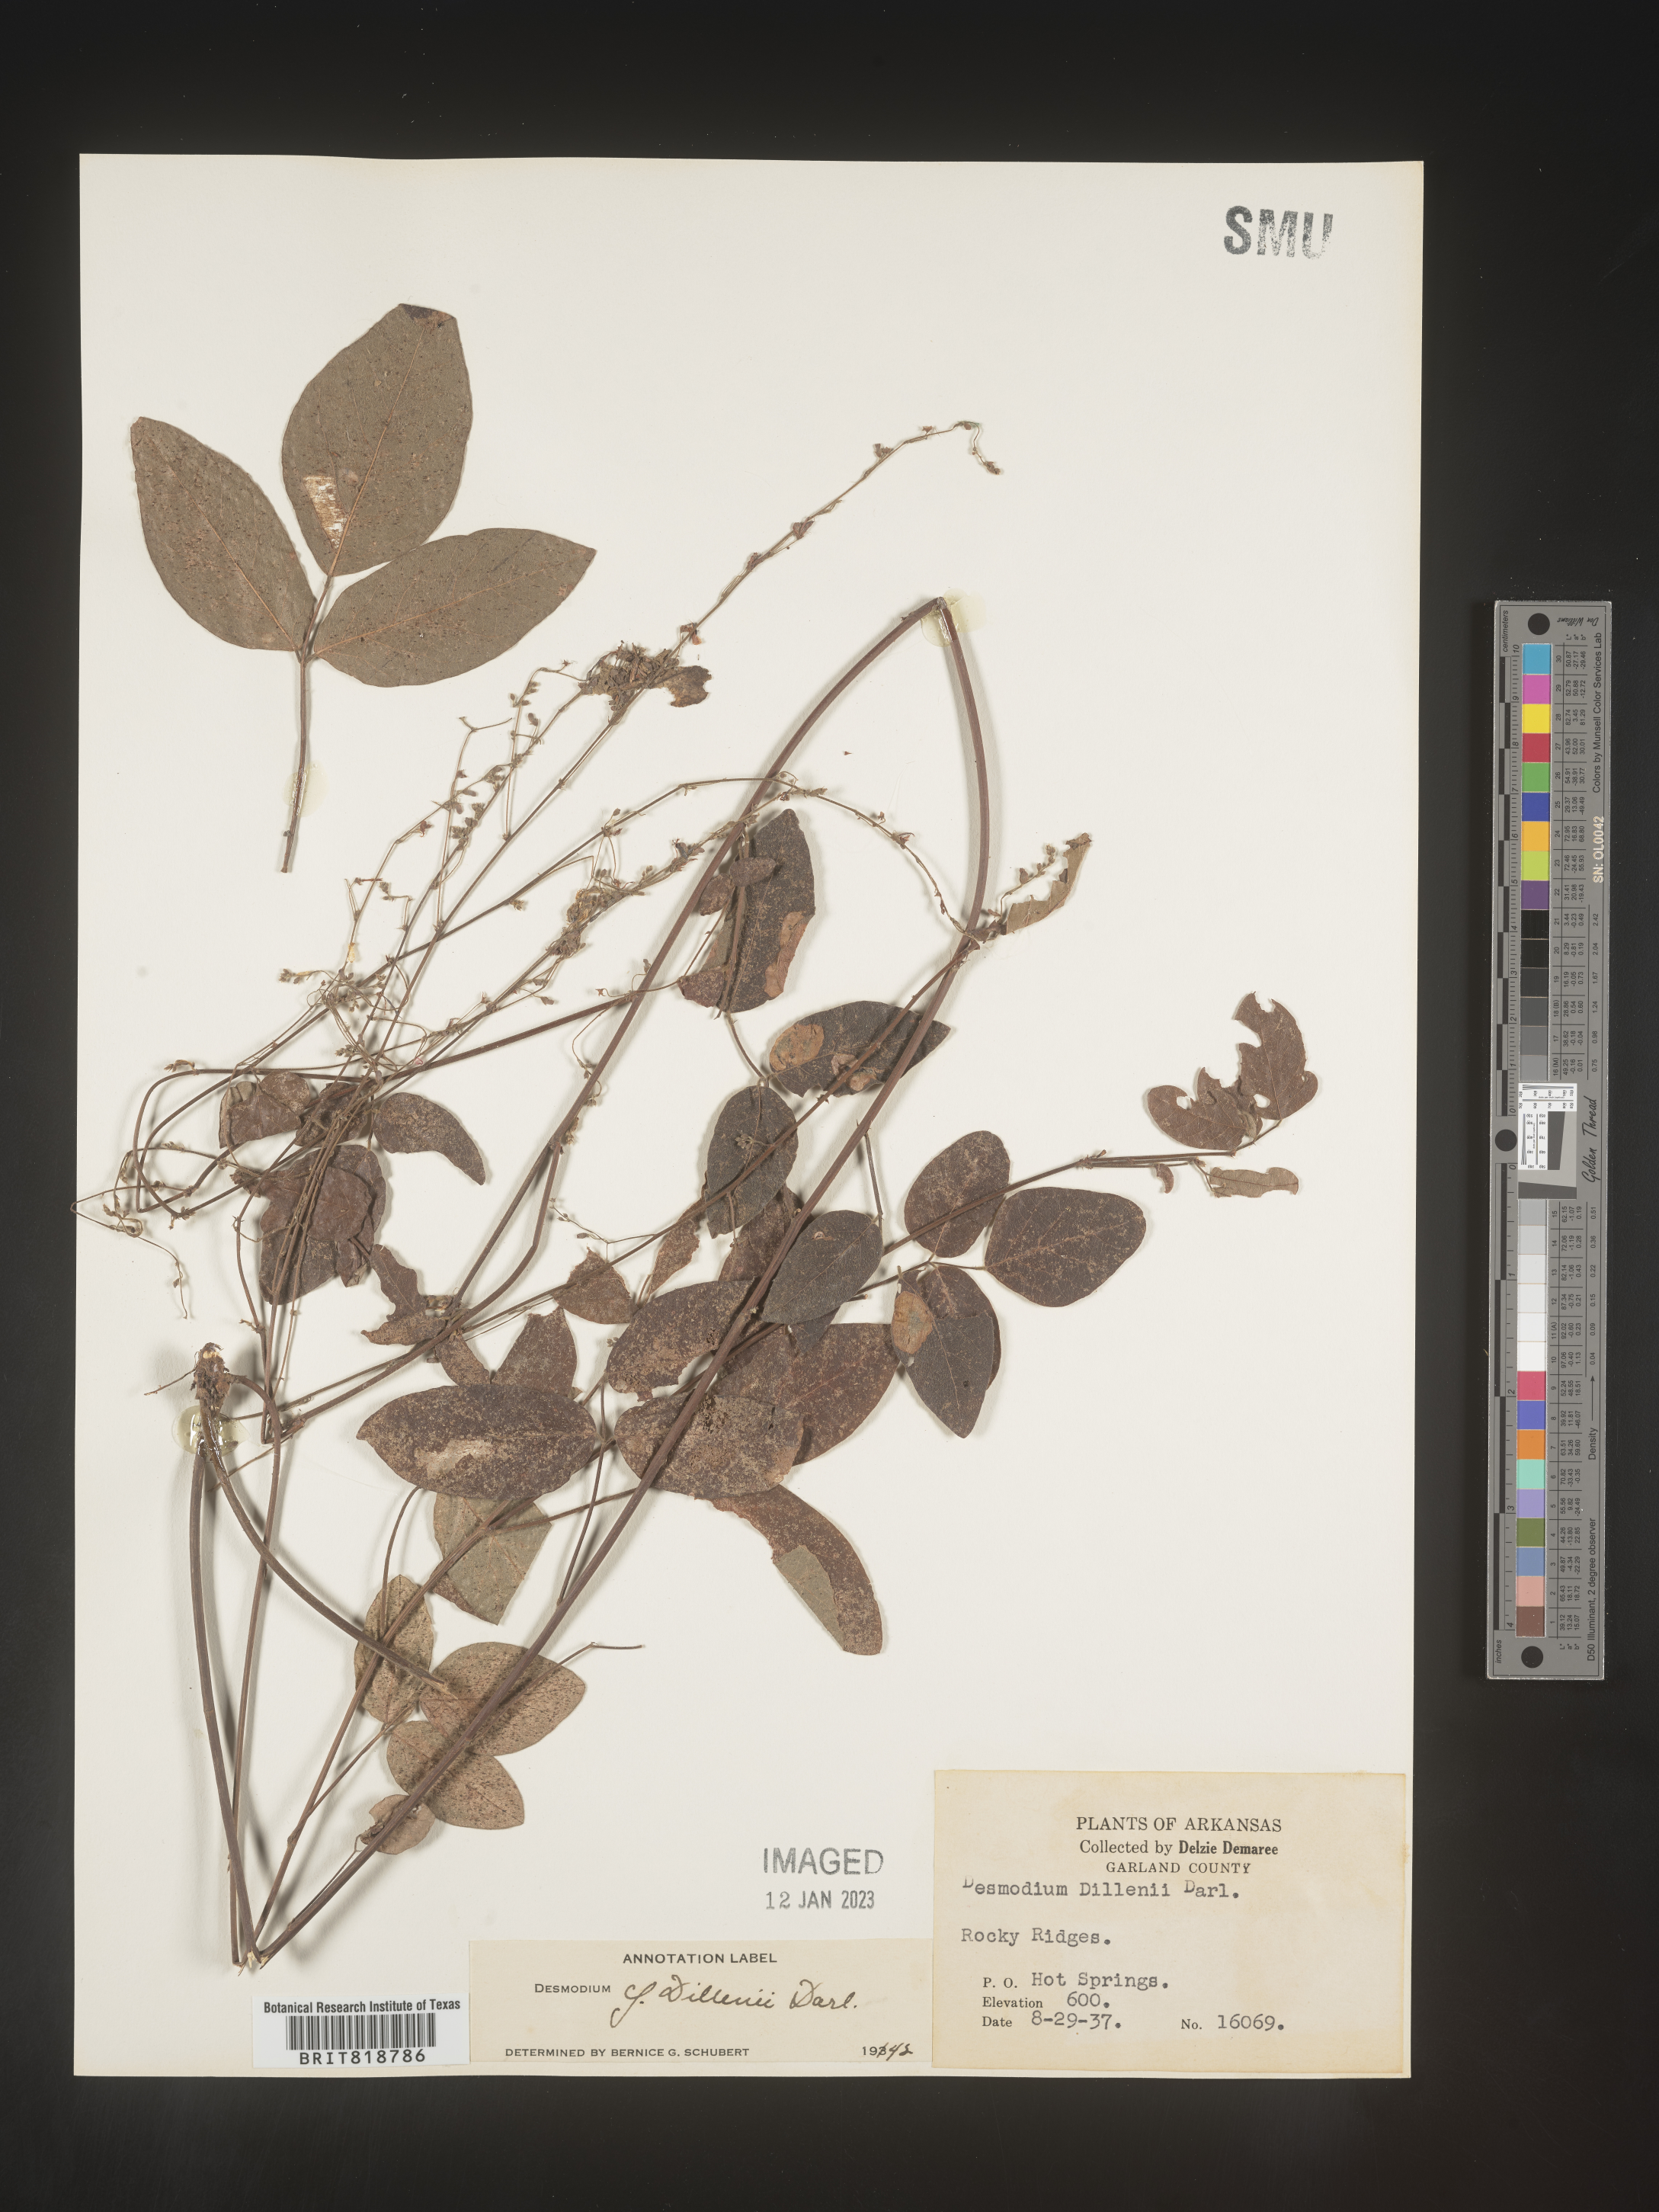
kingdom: Plantae
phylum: Tracheophyta
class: Magnoliopsida
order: Fabales
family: Fabaceae
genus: Desmodium
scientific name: Desmodium perplexum
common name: Perplexed tick trefoil
